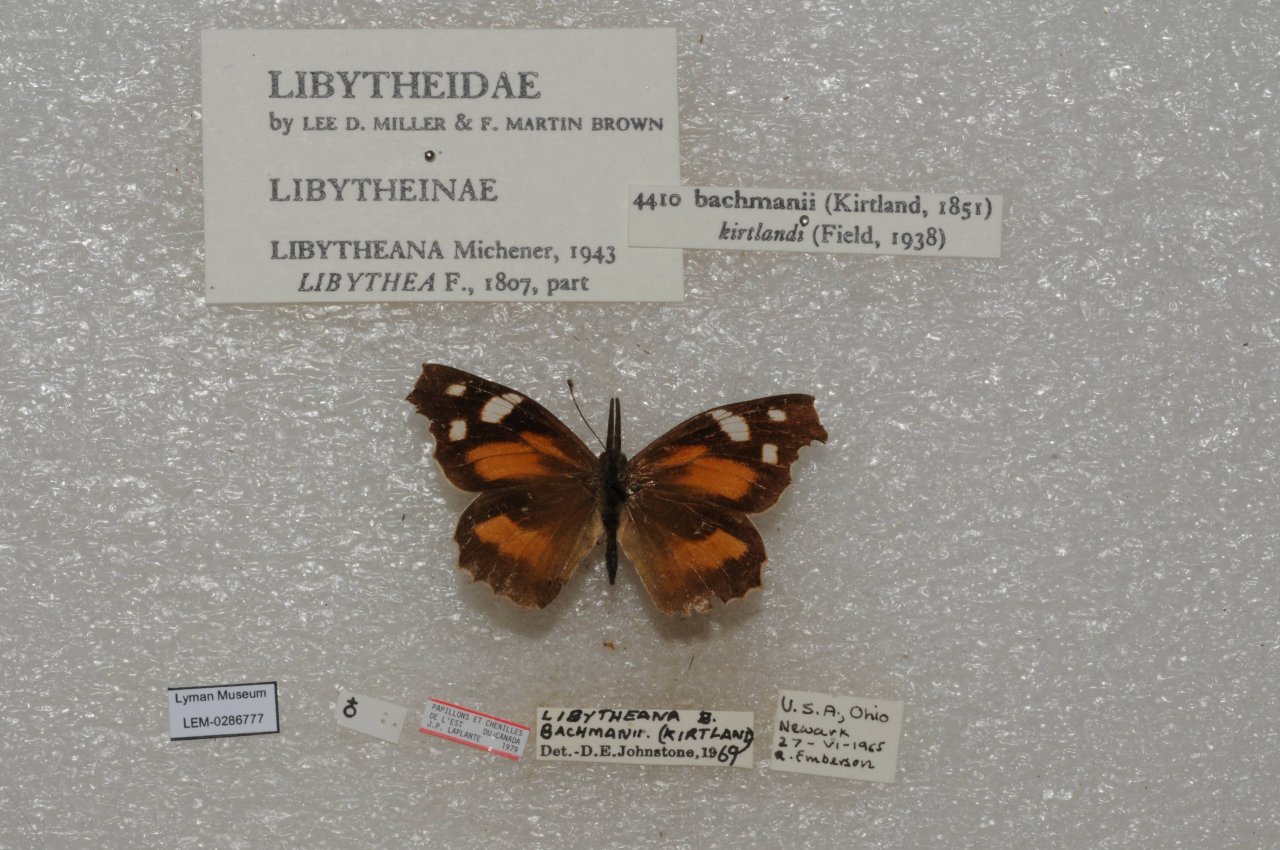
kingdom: Animalia
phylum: Arthropoda
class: Insecta
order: Lepidoptera
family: Nymphalidae
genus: Libytheana
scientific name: Libytheana carinenta
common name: American Snout
